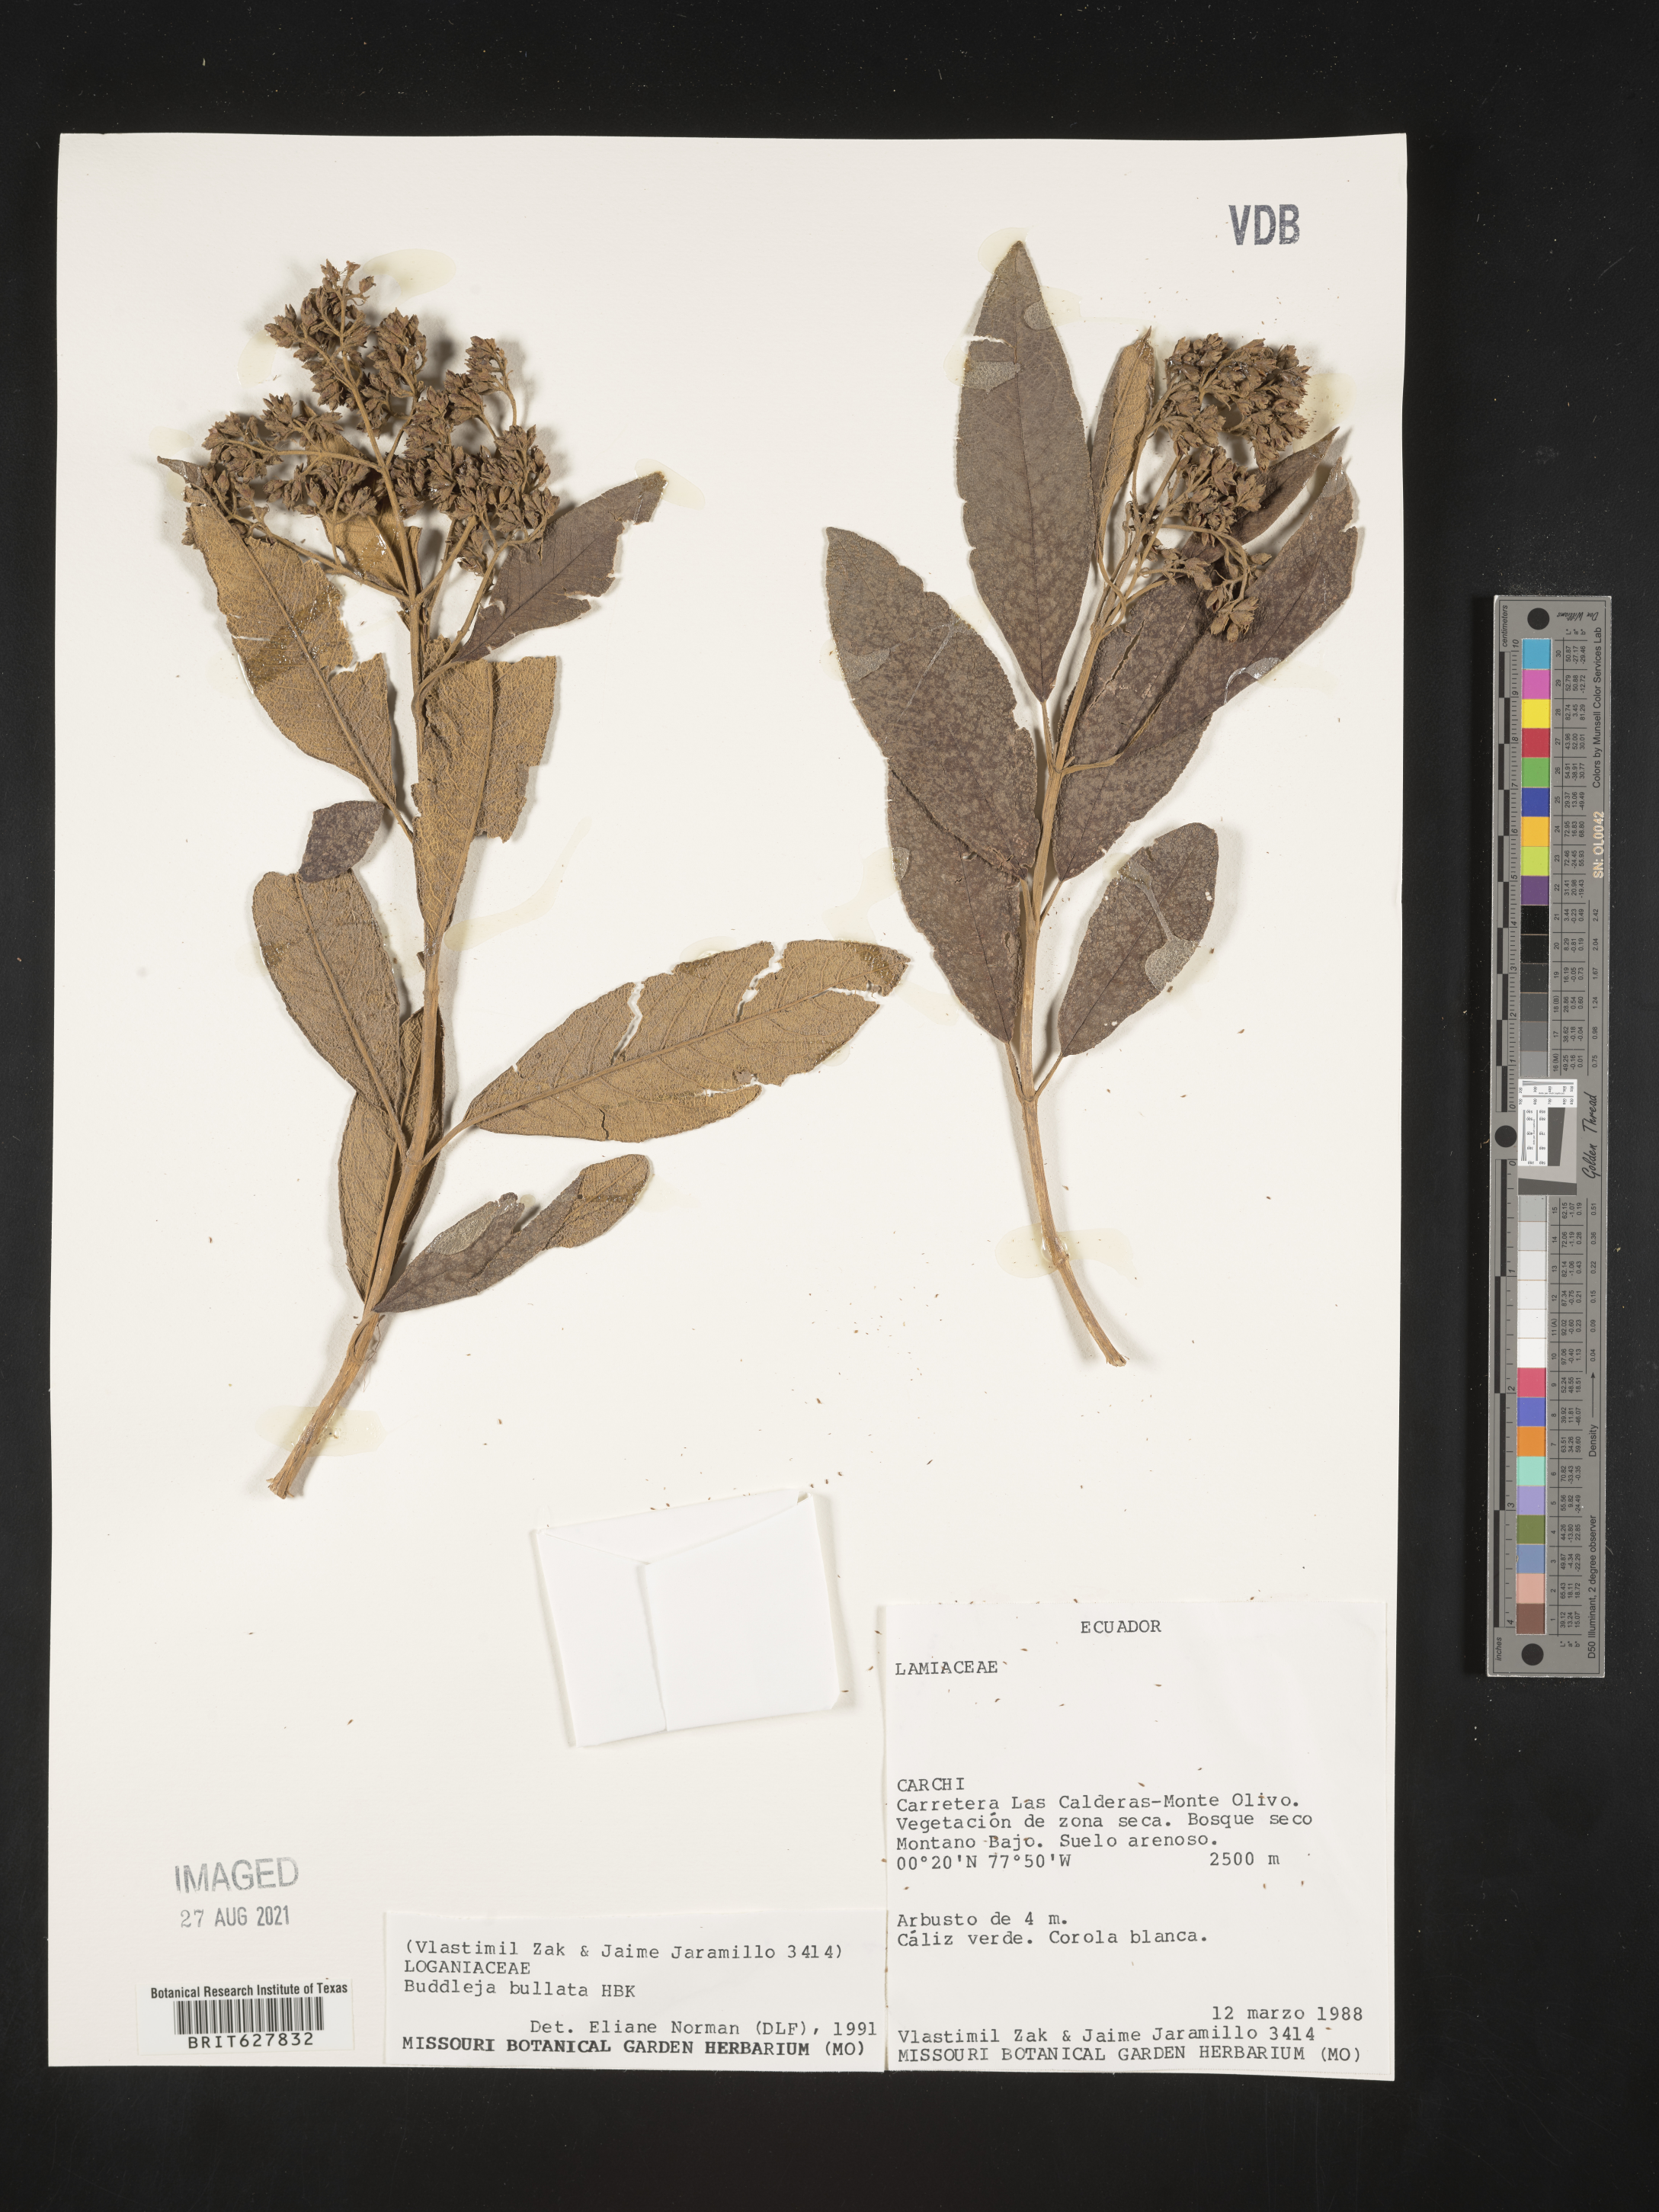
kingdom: Plantae
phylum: Tracheophyta
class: Magnoliopsida
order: Lamiales
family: Scrophulariaceae
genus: Buddleja
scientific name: Buddleja
